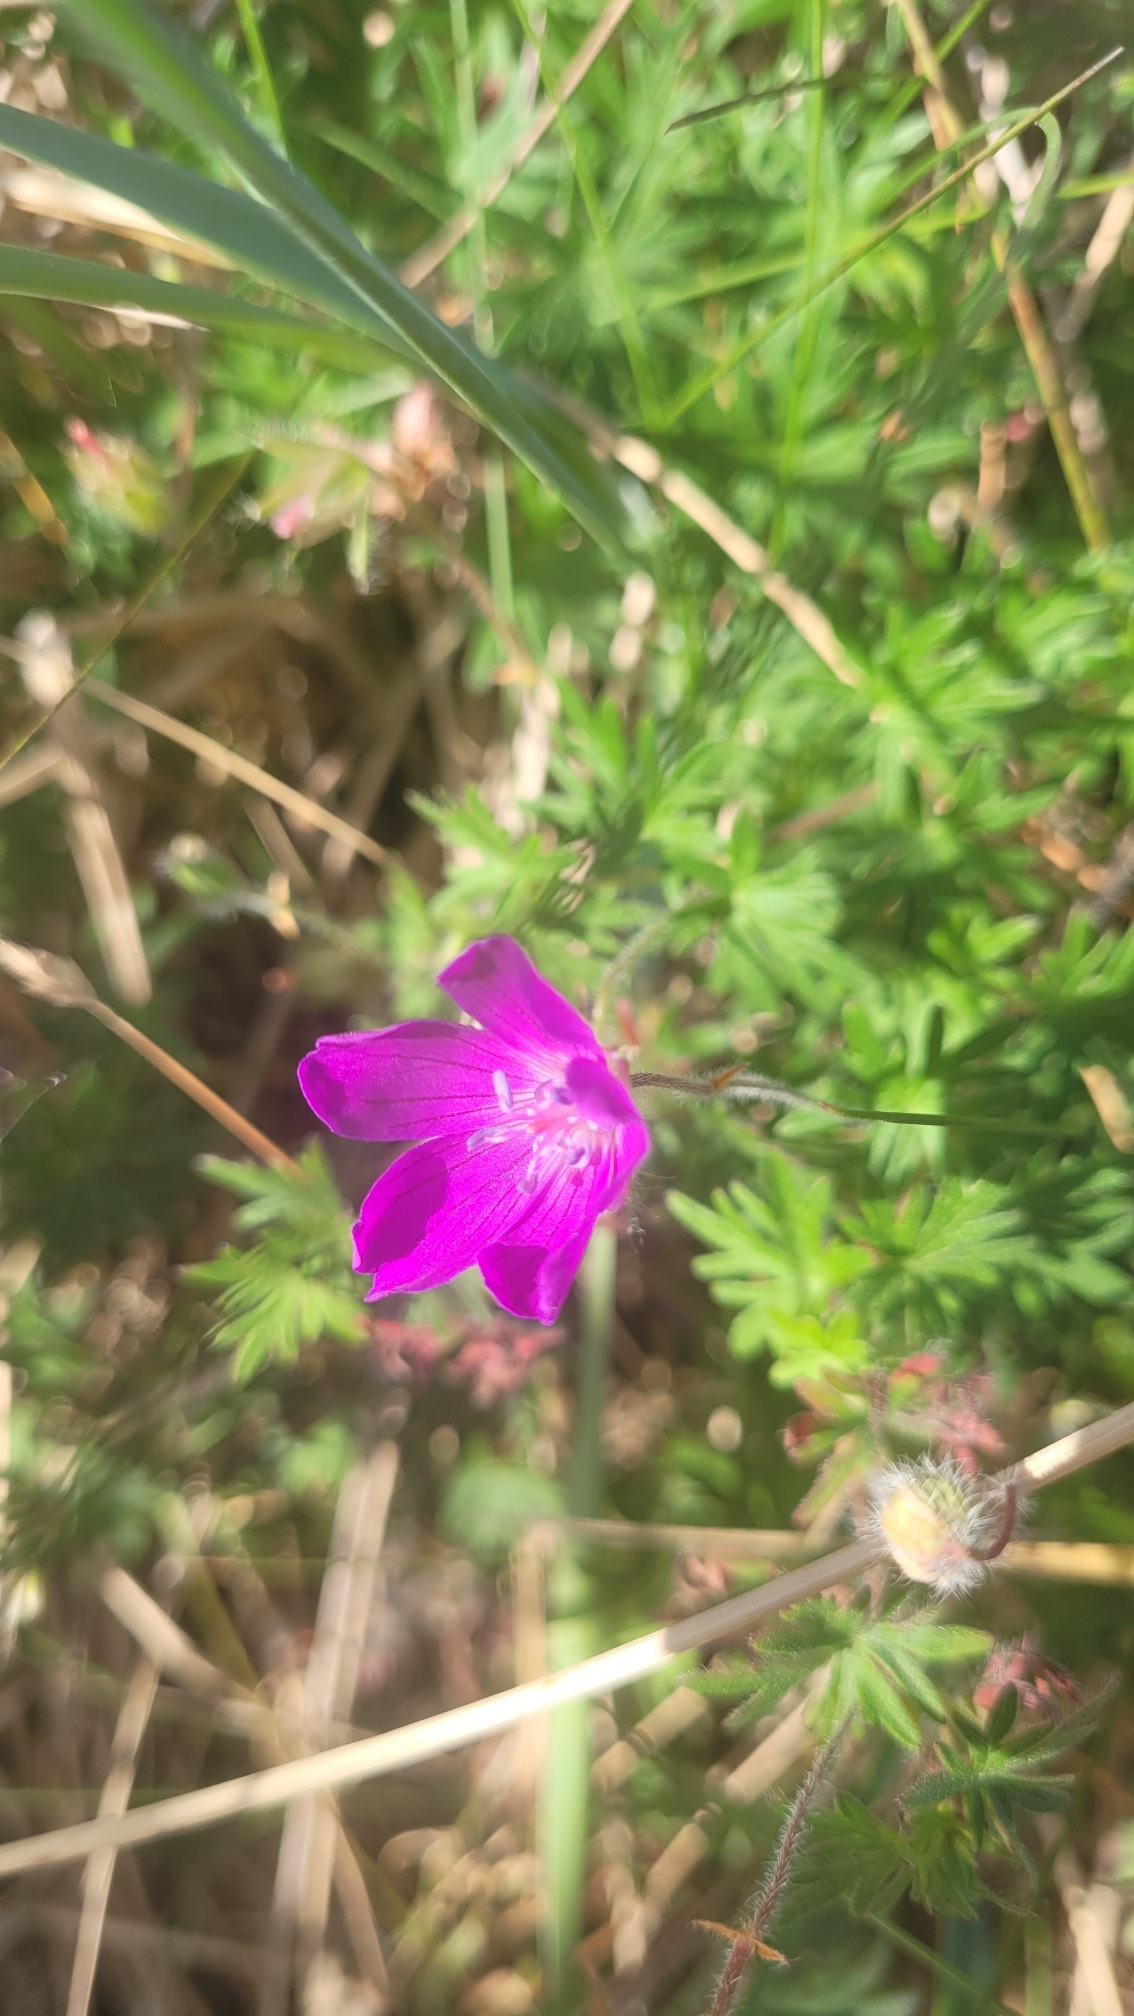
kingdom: Plantae
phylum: Tracheophyta
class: Magnoliopsida
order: Geraniales
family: Geraniaceae
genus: Geranium
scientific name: Geranium sanguineum
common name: Blodrød storkenæb
